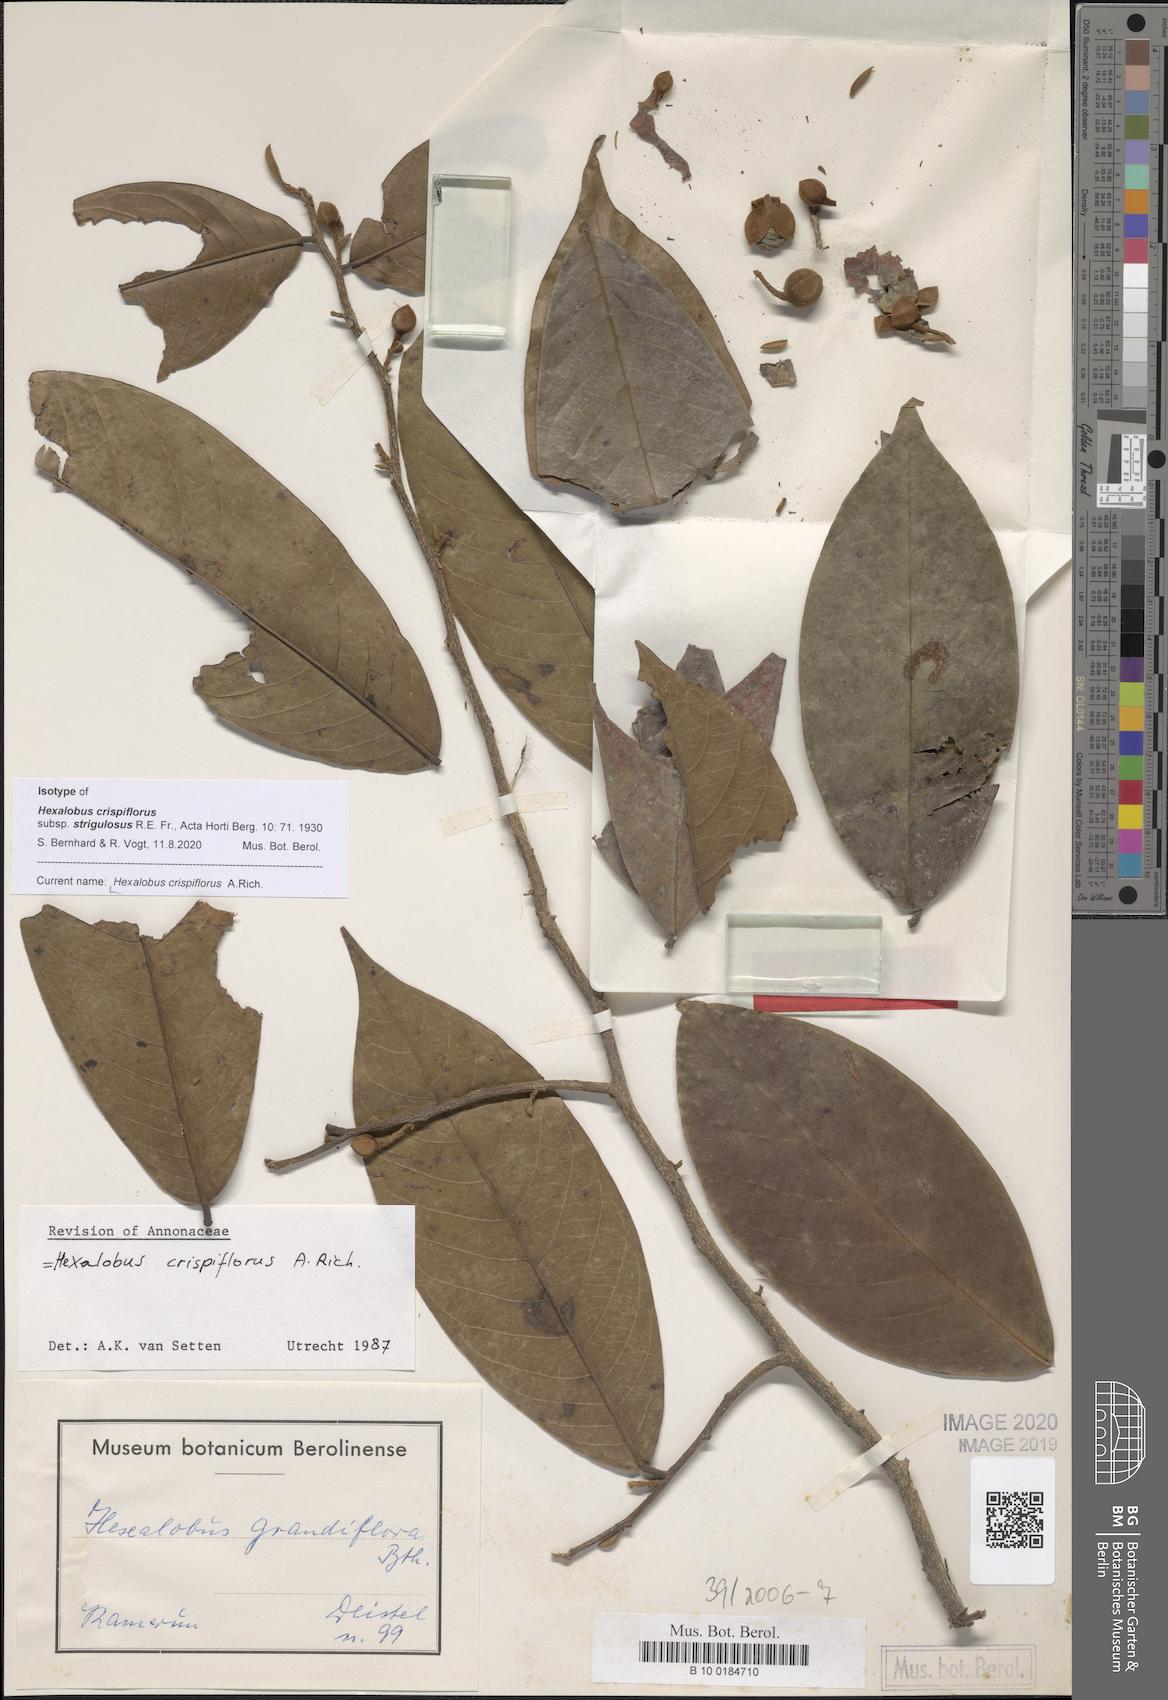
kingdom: Plantae
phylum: Tracheophyta
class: Magnoliopsida
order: Magnoliales
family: Annonaceae
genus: Hexalobus
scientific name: Hexalobus crispiflorus
